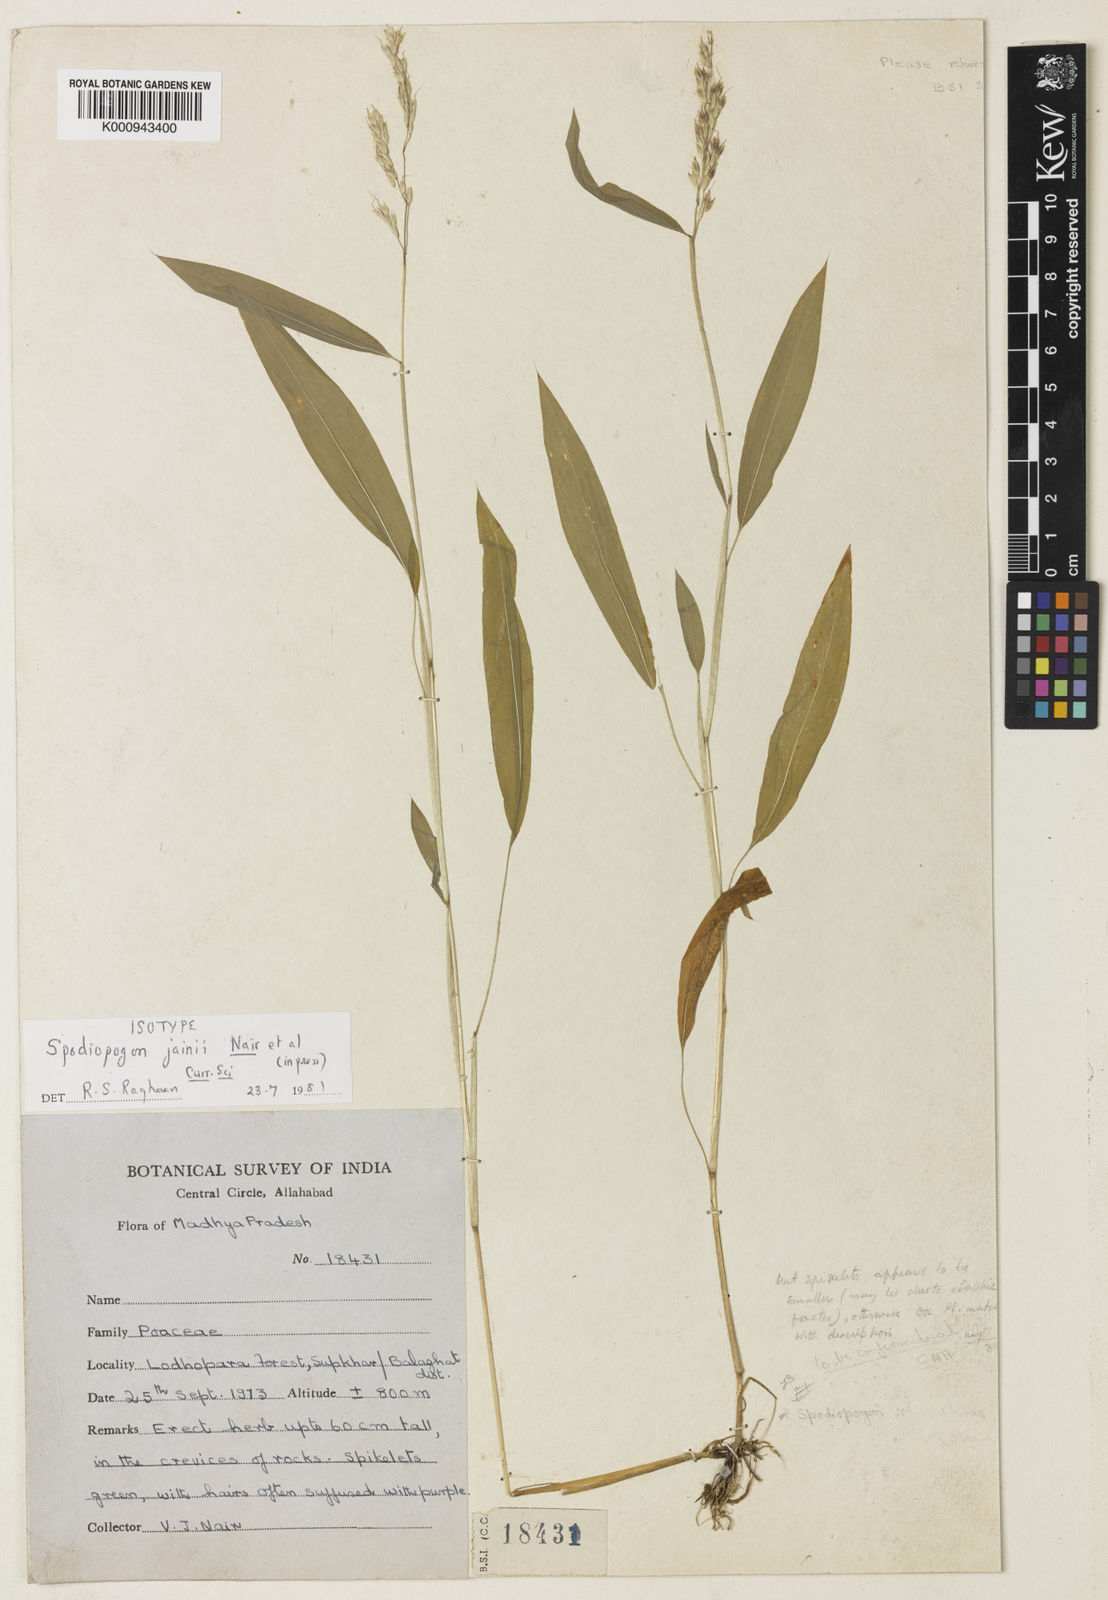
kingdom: Plantae
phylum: Tracheophyta
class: Liliopsida
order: Poales
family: Poaceae
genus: Spodiopogon
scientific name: Spodiopogon jainii
